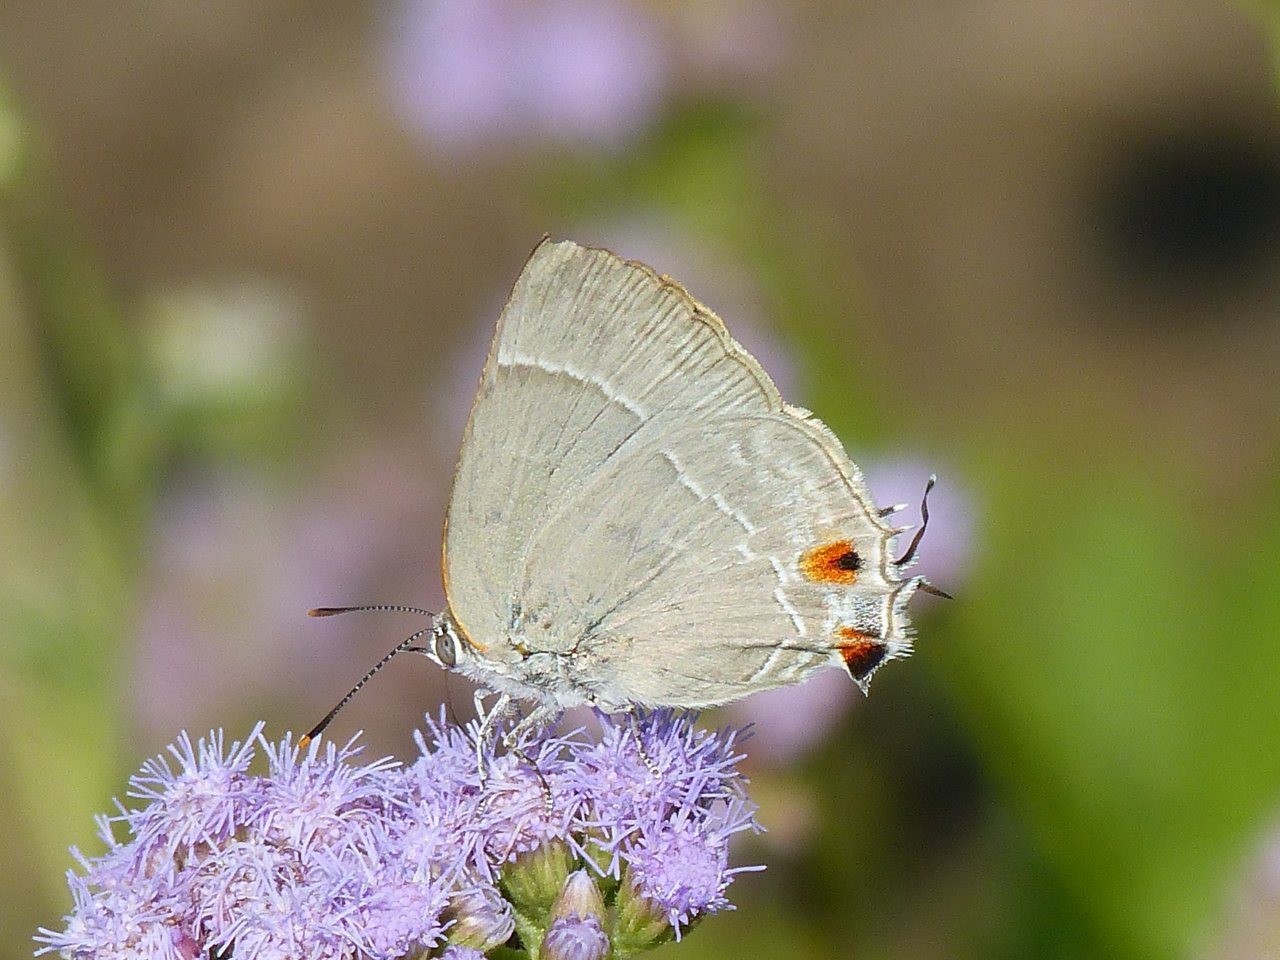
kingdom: Animalia
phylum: Arthropoda
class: Insecta
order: Lepidoptera
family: Lycaenidae
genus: Thecla
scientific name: Thecla marius
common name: Marius Hairstreak
